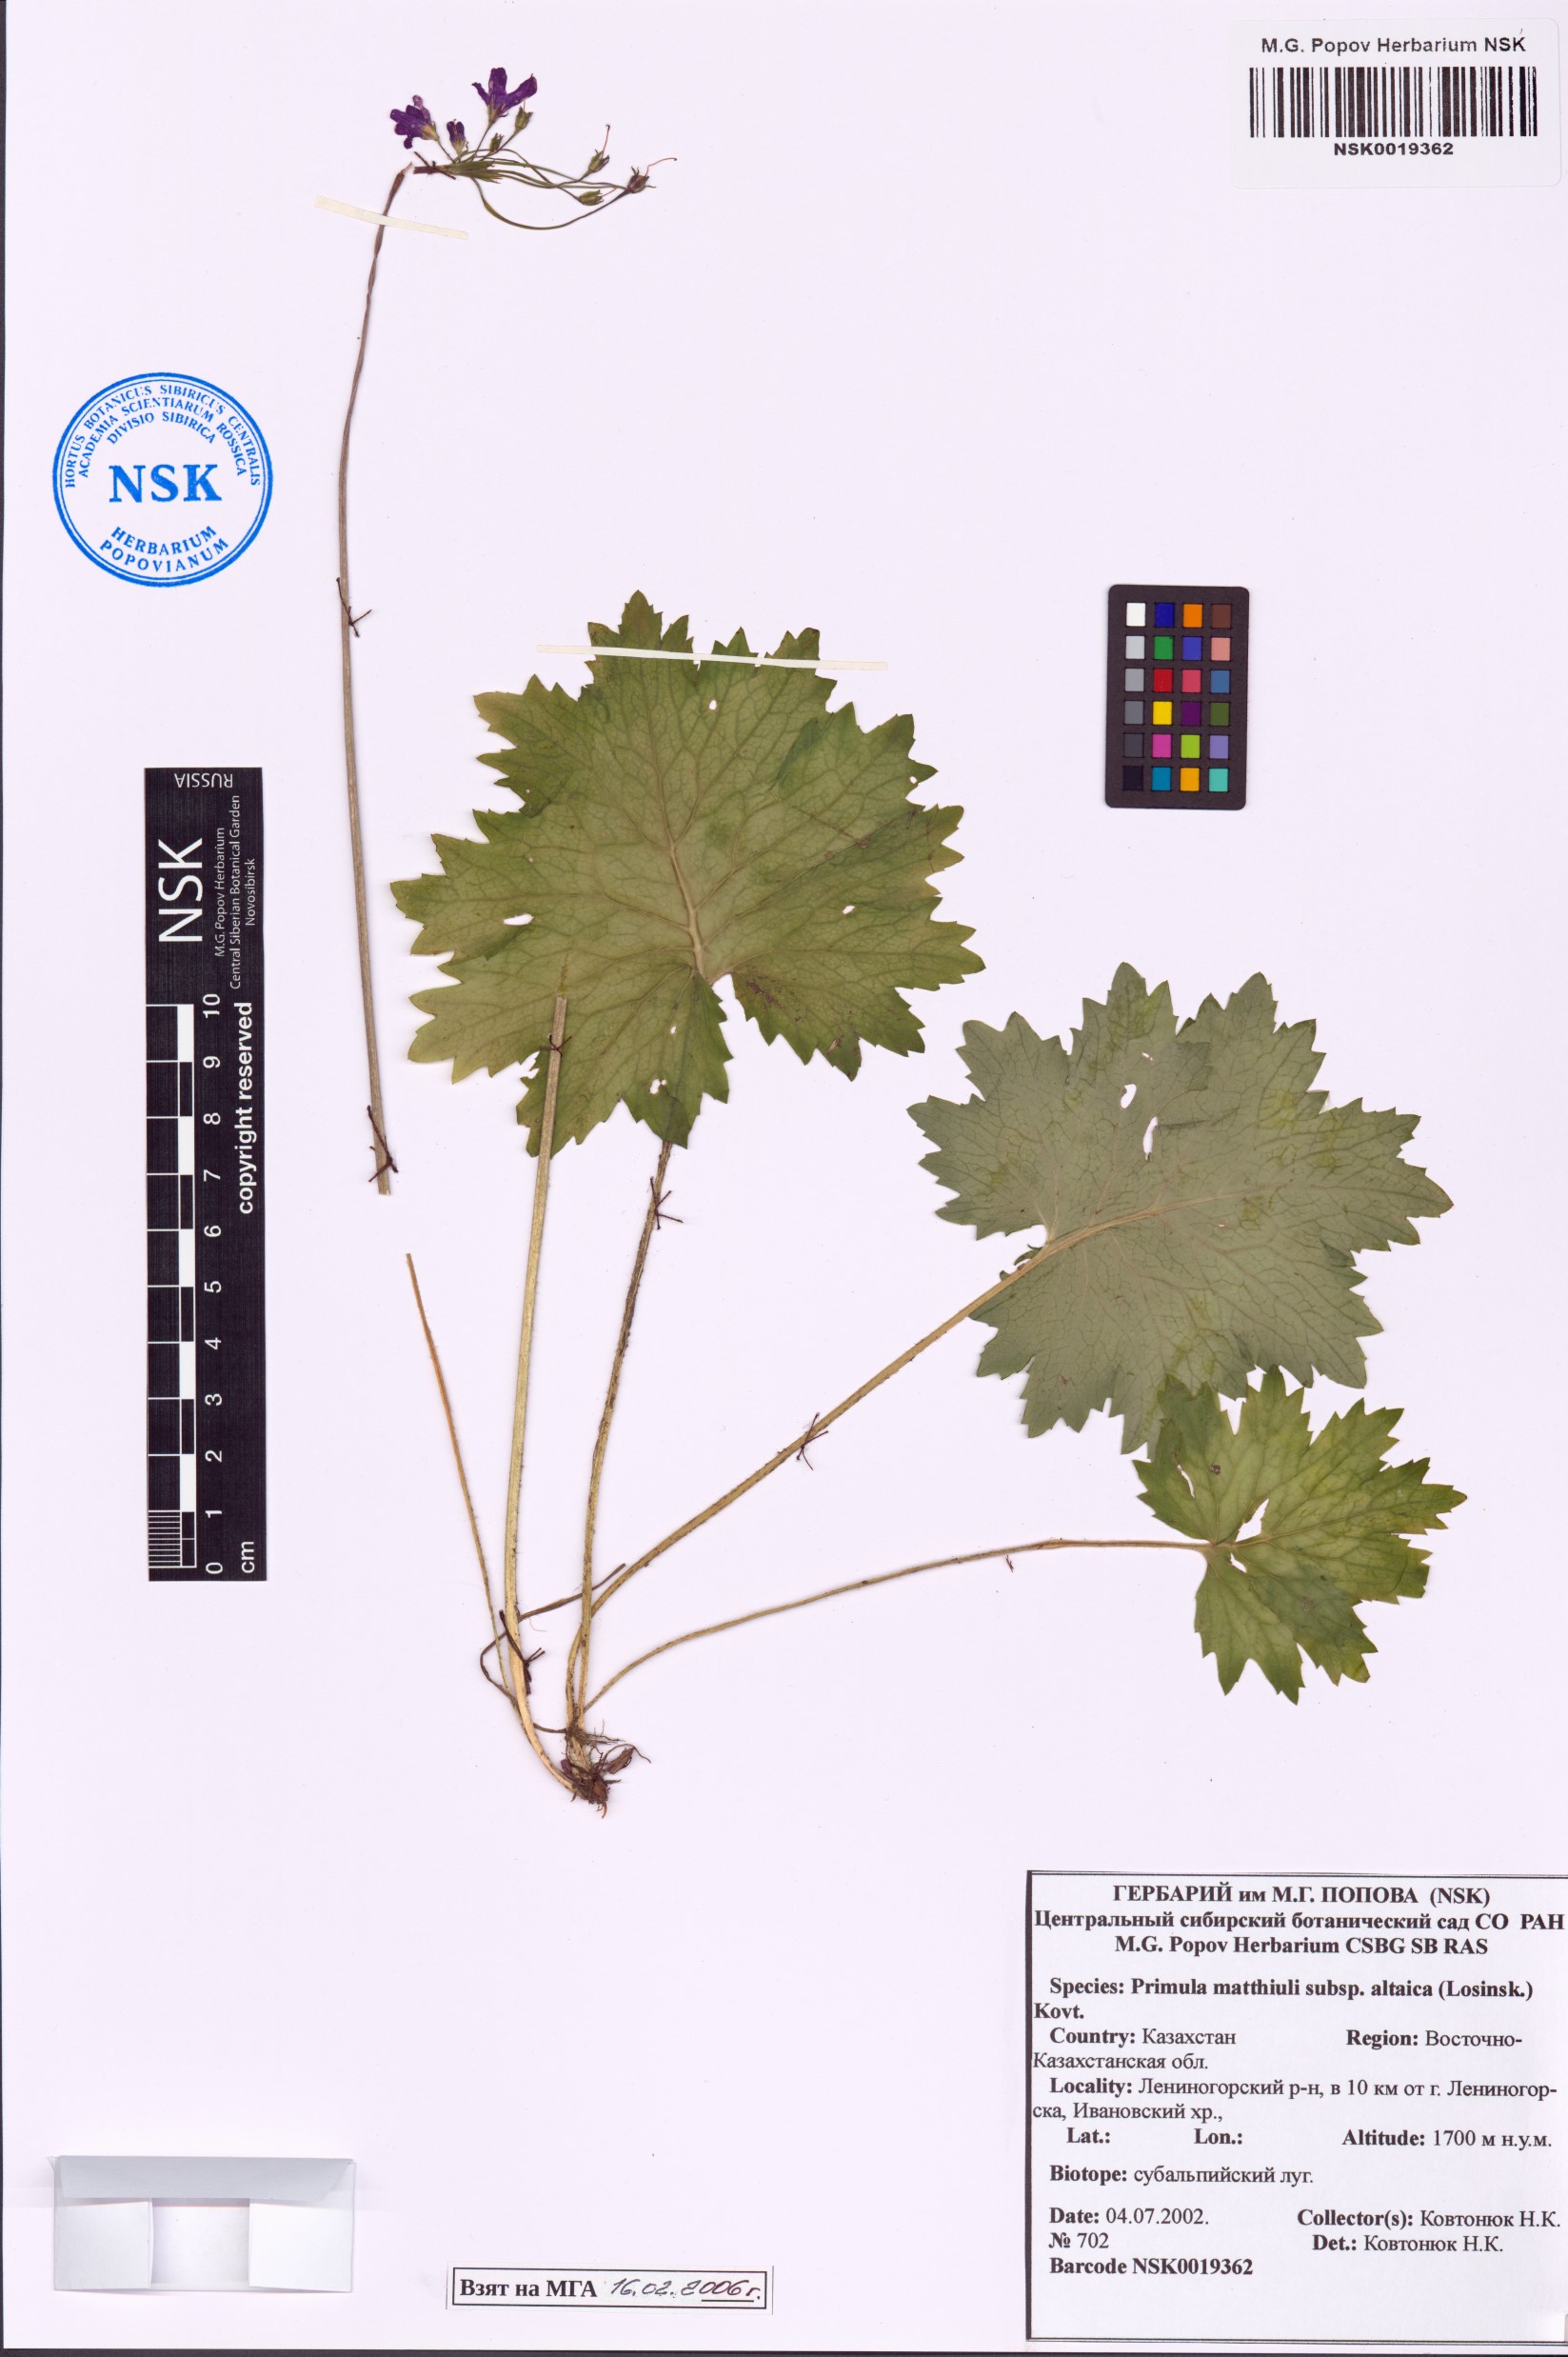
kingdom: Plantae
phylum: Tracheophyta
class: Magnoliopsida
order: Ericales
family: Primulaceae
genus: Primula
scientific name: Primula matthioli
